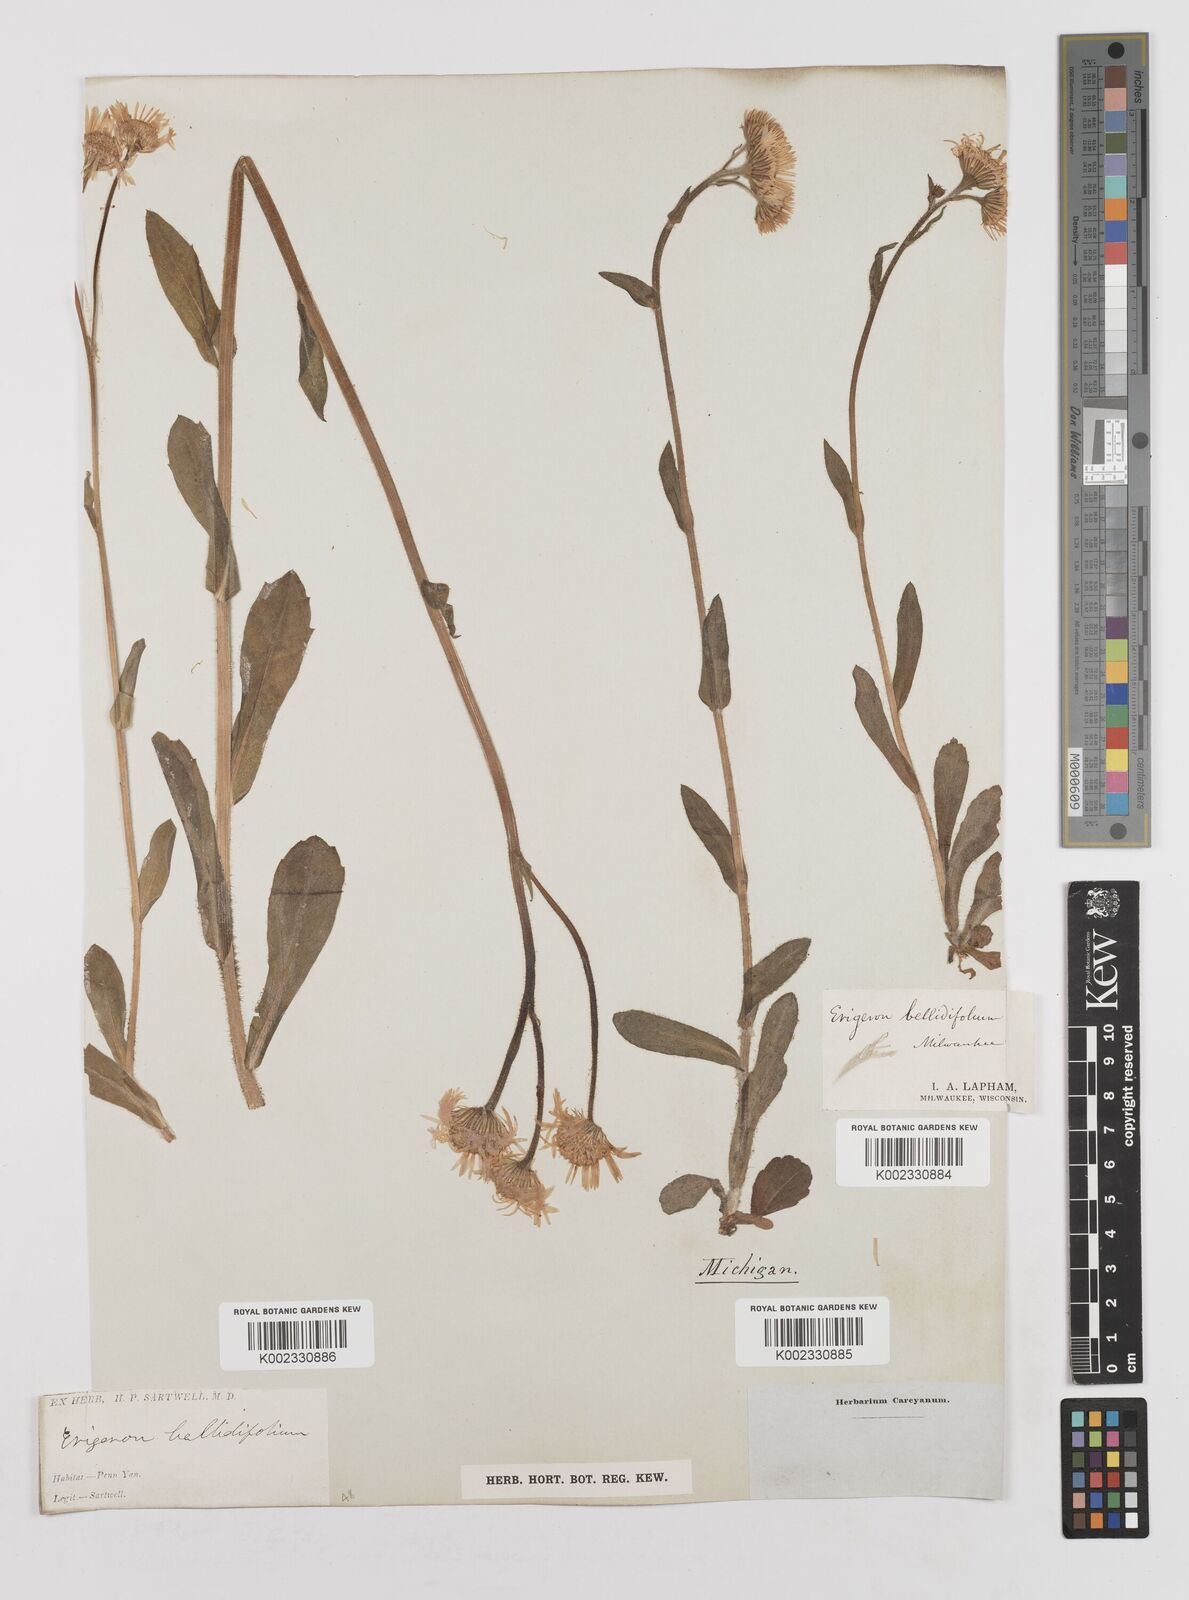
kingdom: Plantae
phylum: Tracheophyta
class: Magnoliopsida
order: Asterales
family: Asteraceae
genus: Erigeron
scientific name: Erigeron pulchellus
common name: Hairy fleabane
